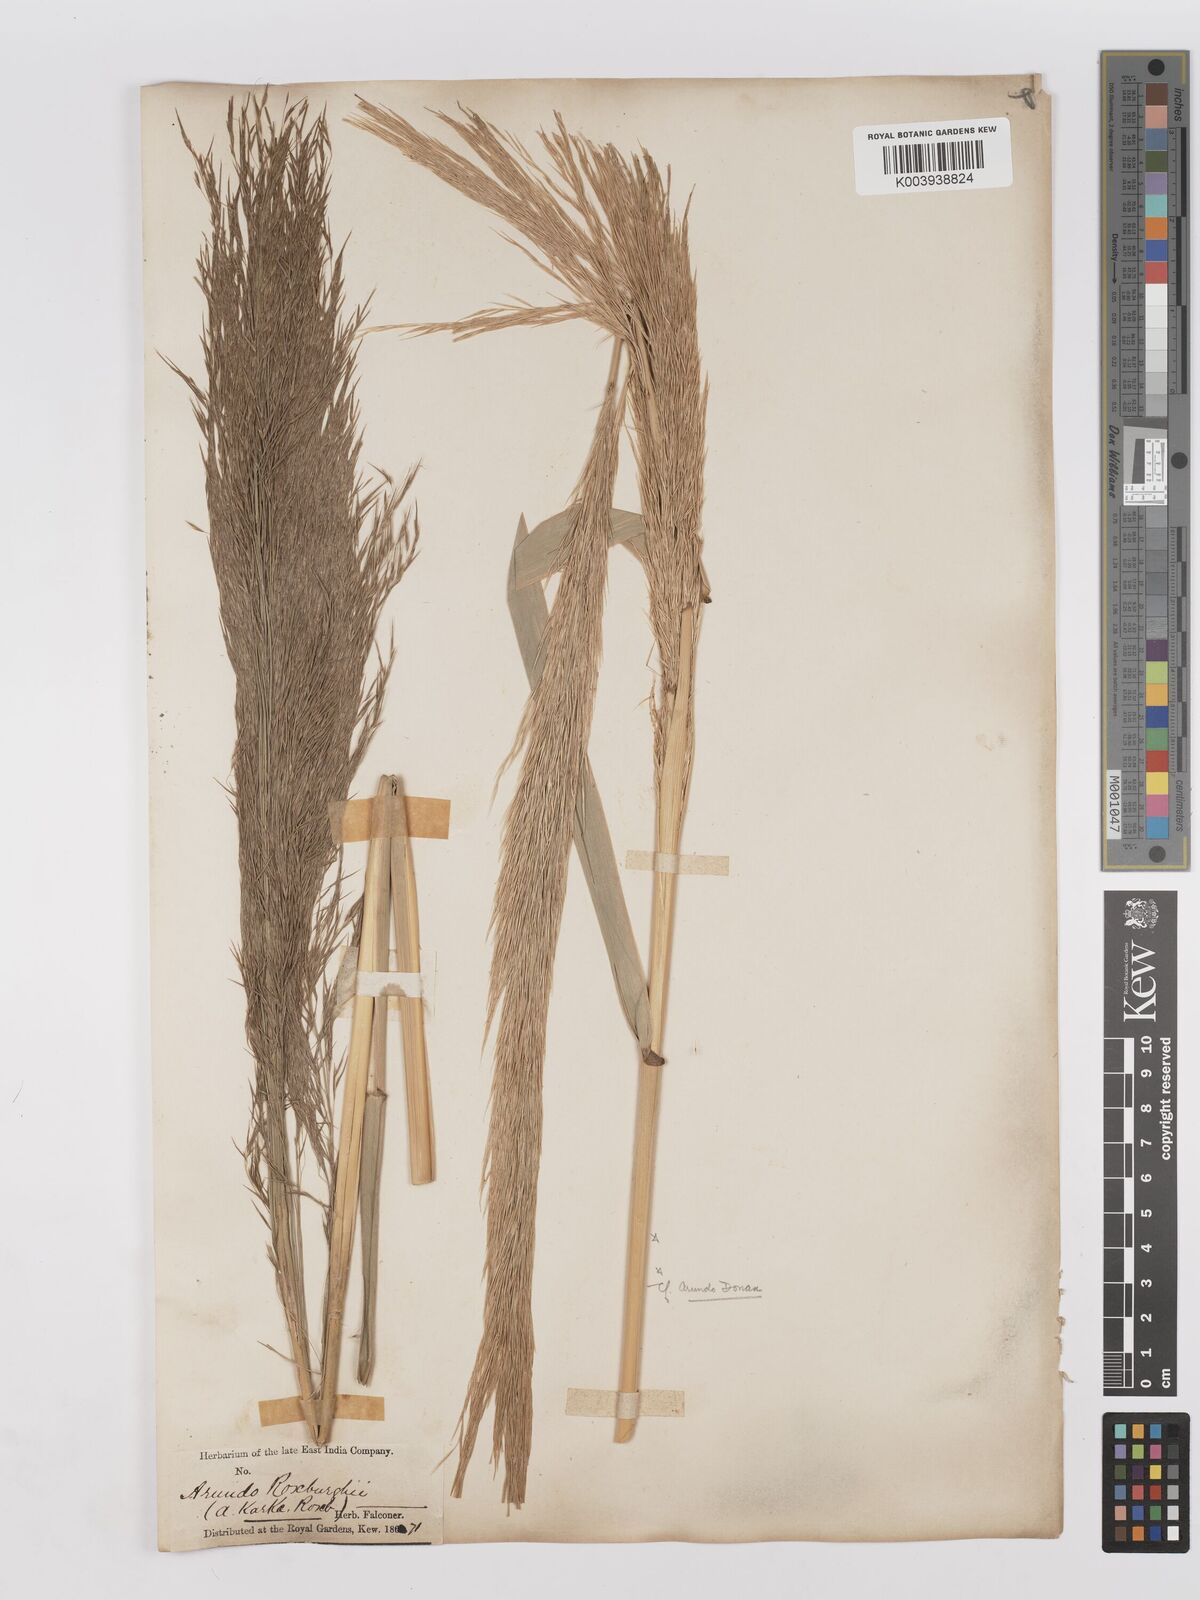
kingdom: Plantae
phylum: Tracheophyta
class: Liliopsida
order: Poales
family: Poaceae
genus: Phragmites
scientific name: Phragmites karka
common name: Tropical reed
